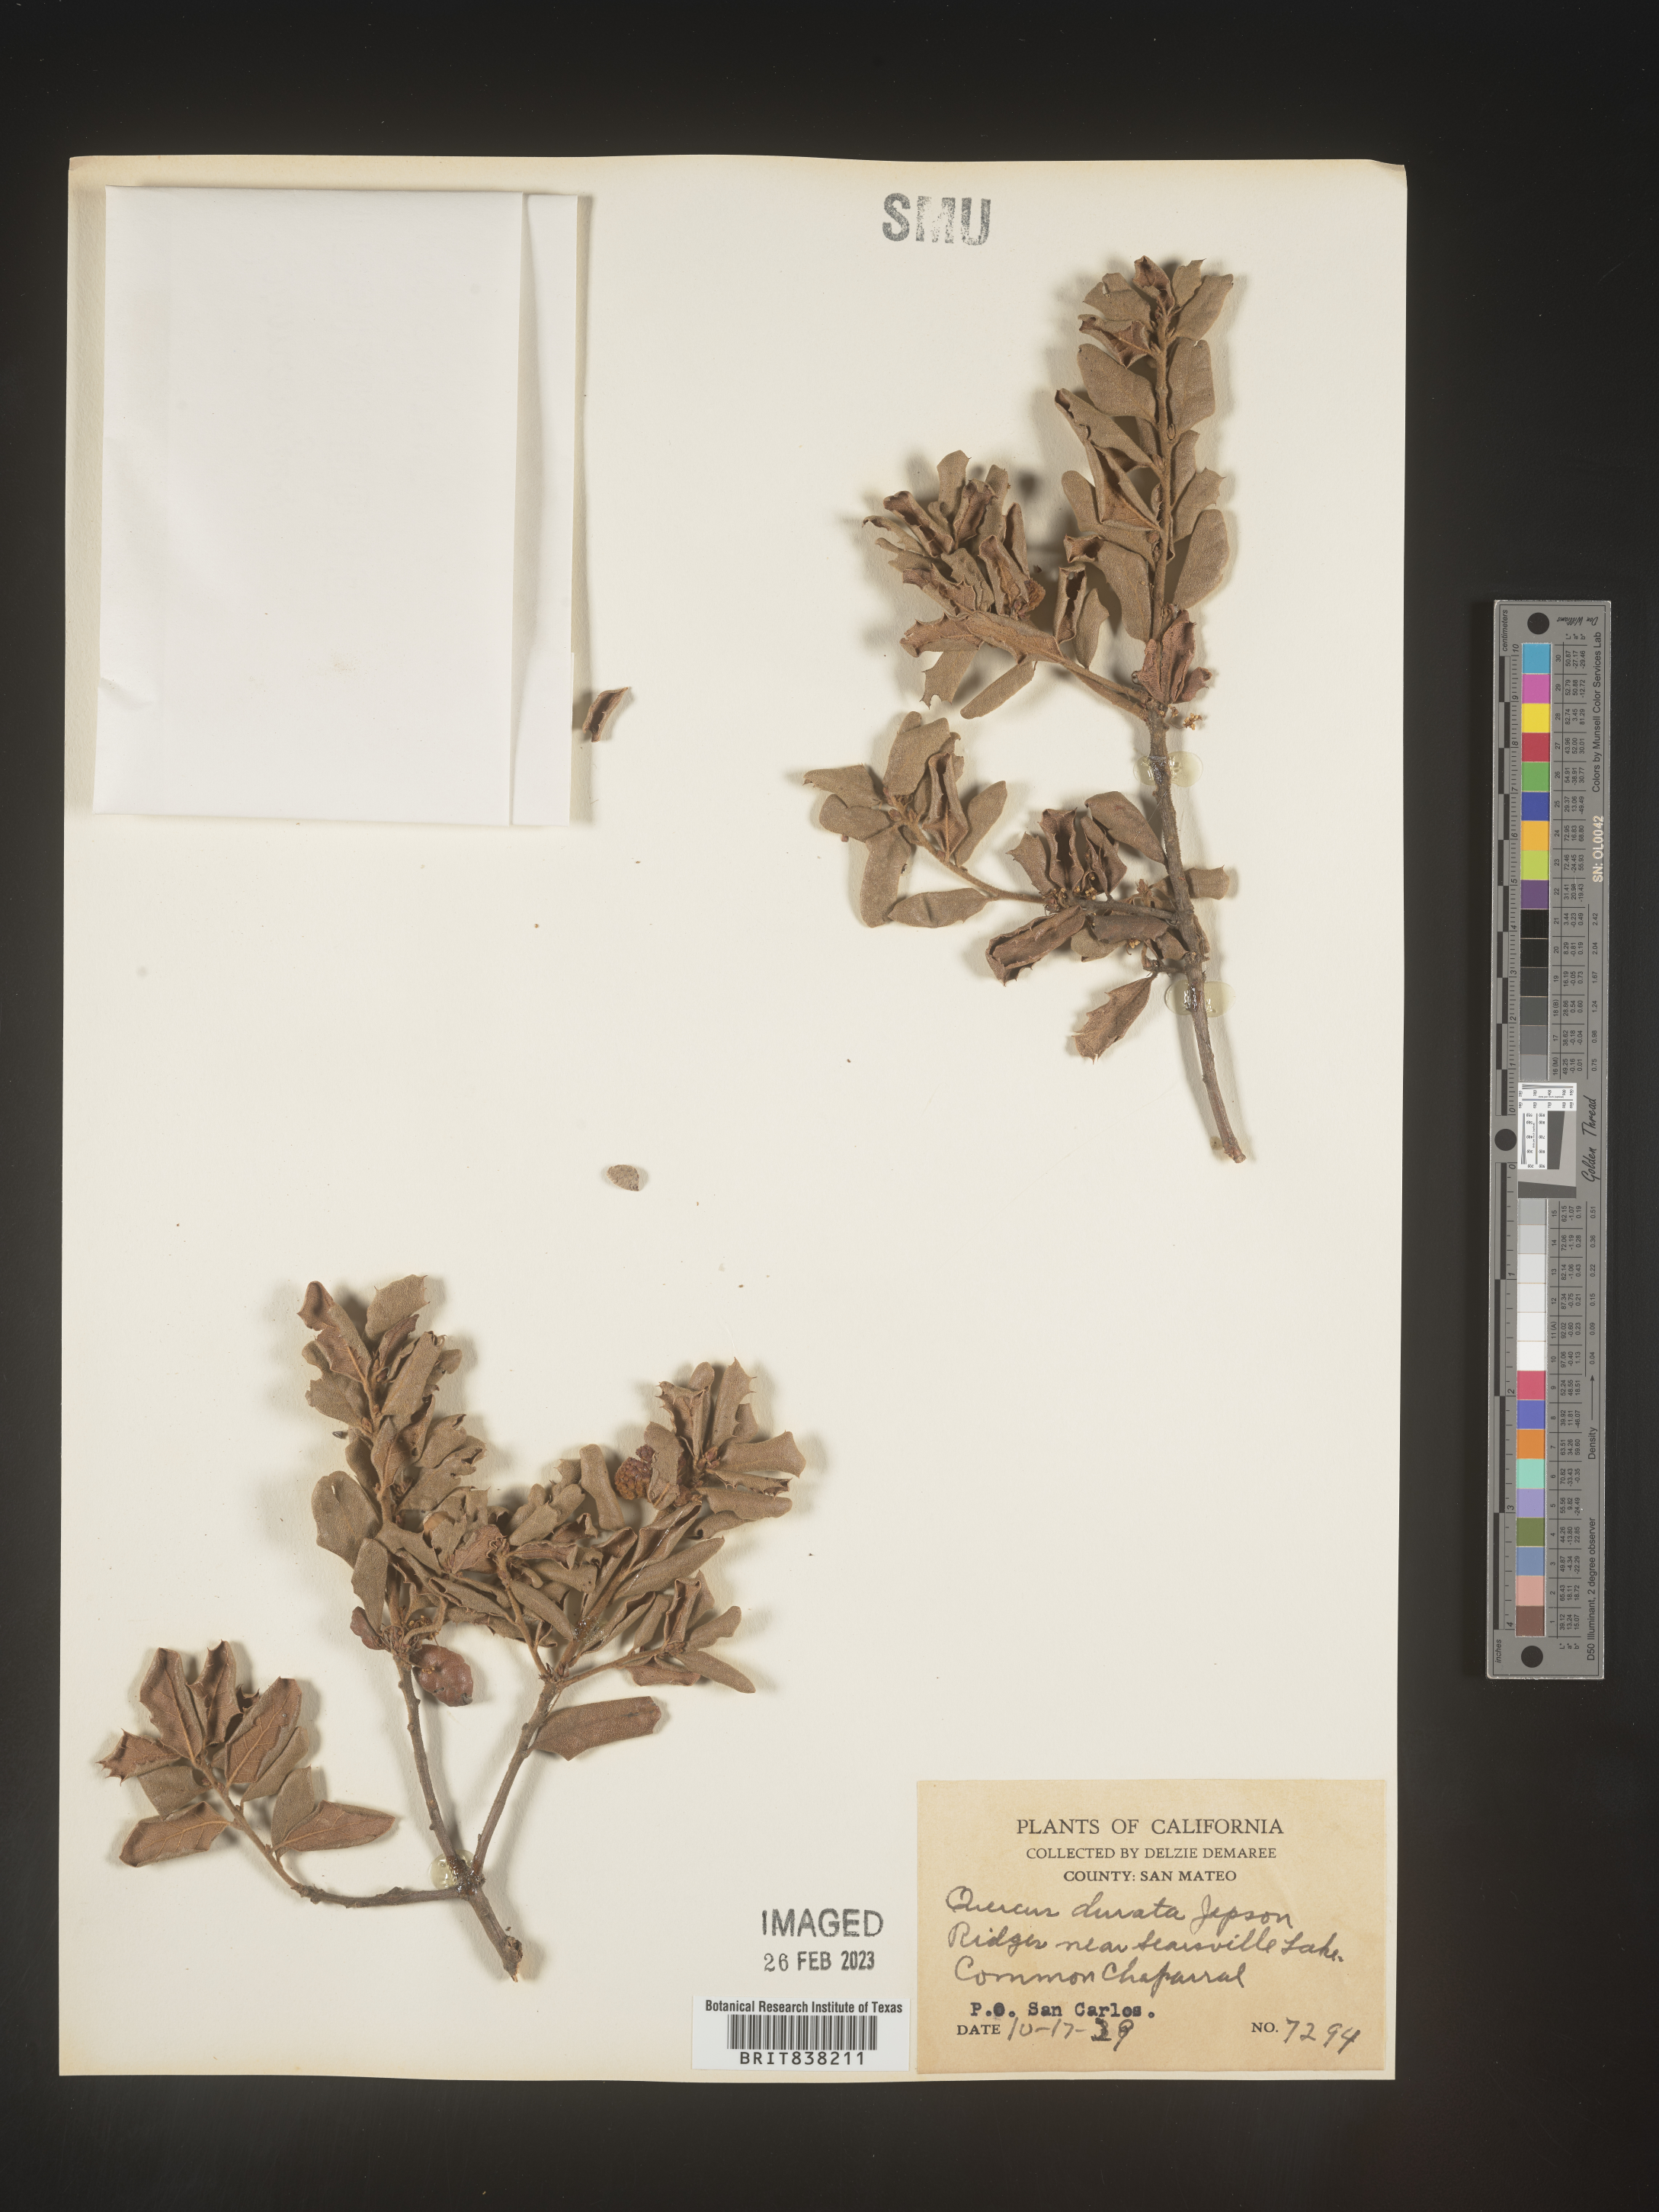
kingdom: Plantae
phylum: Tracheophyta
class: Magnoliopsida
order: Fagales
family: Fagaceae
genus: Quercus
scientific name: Quercus
